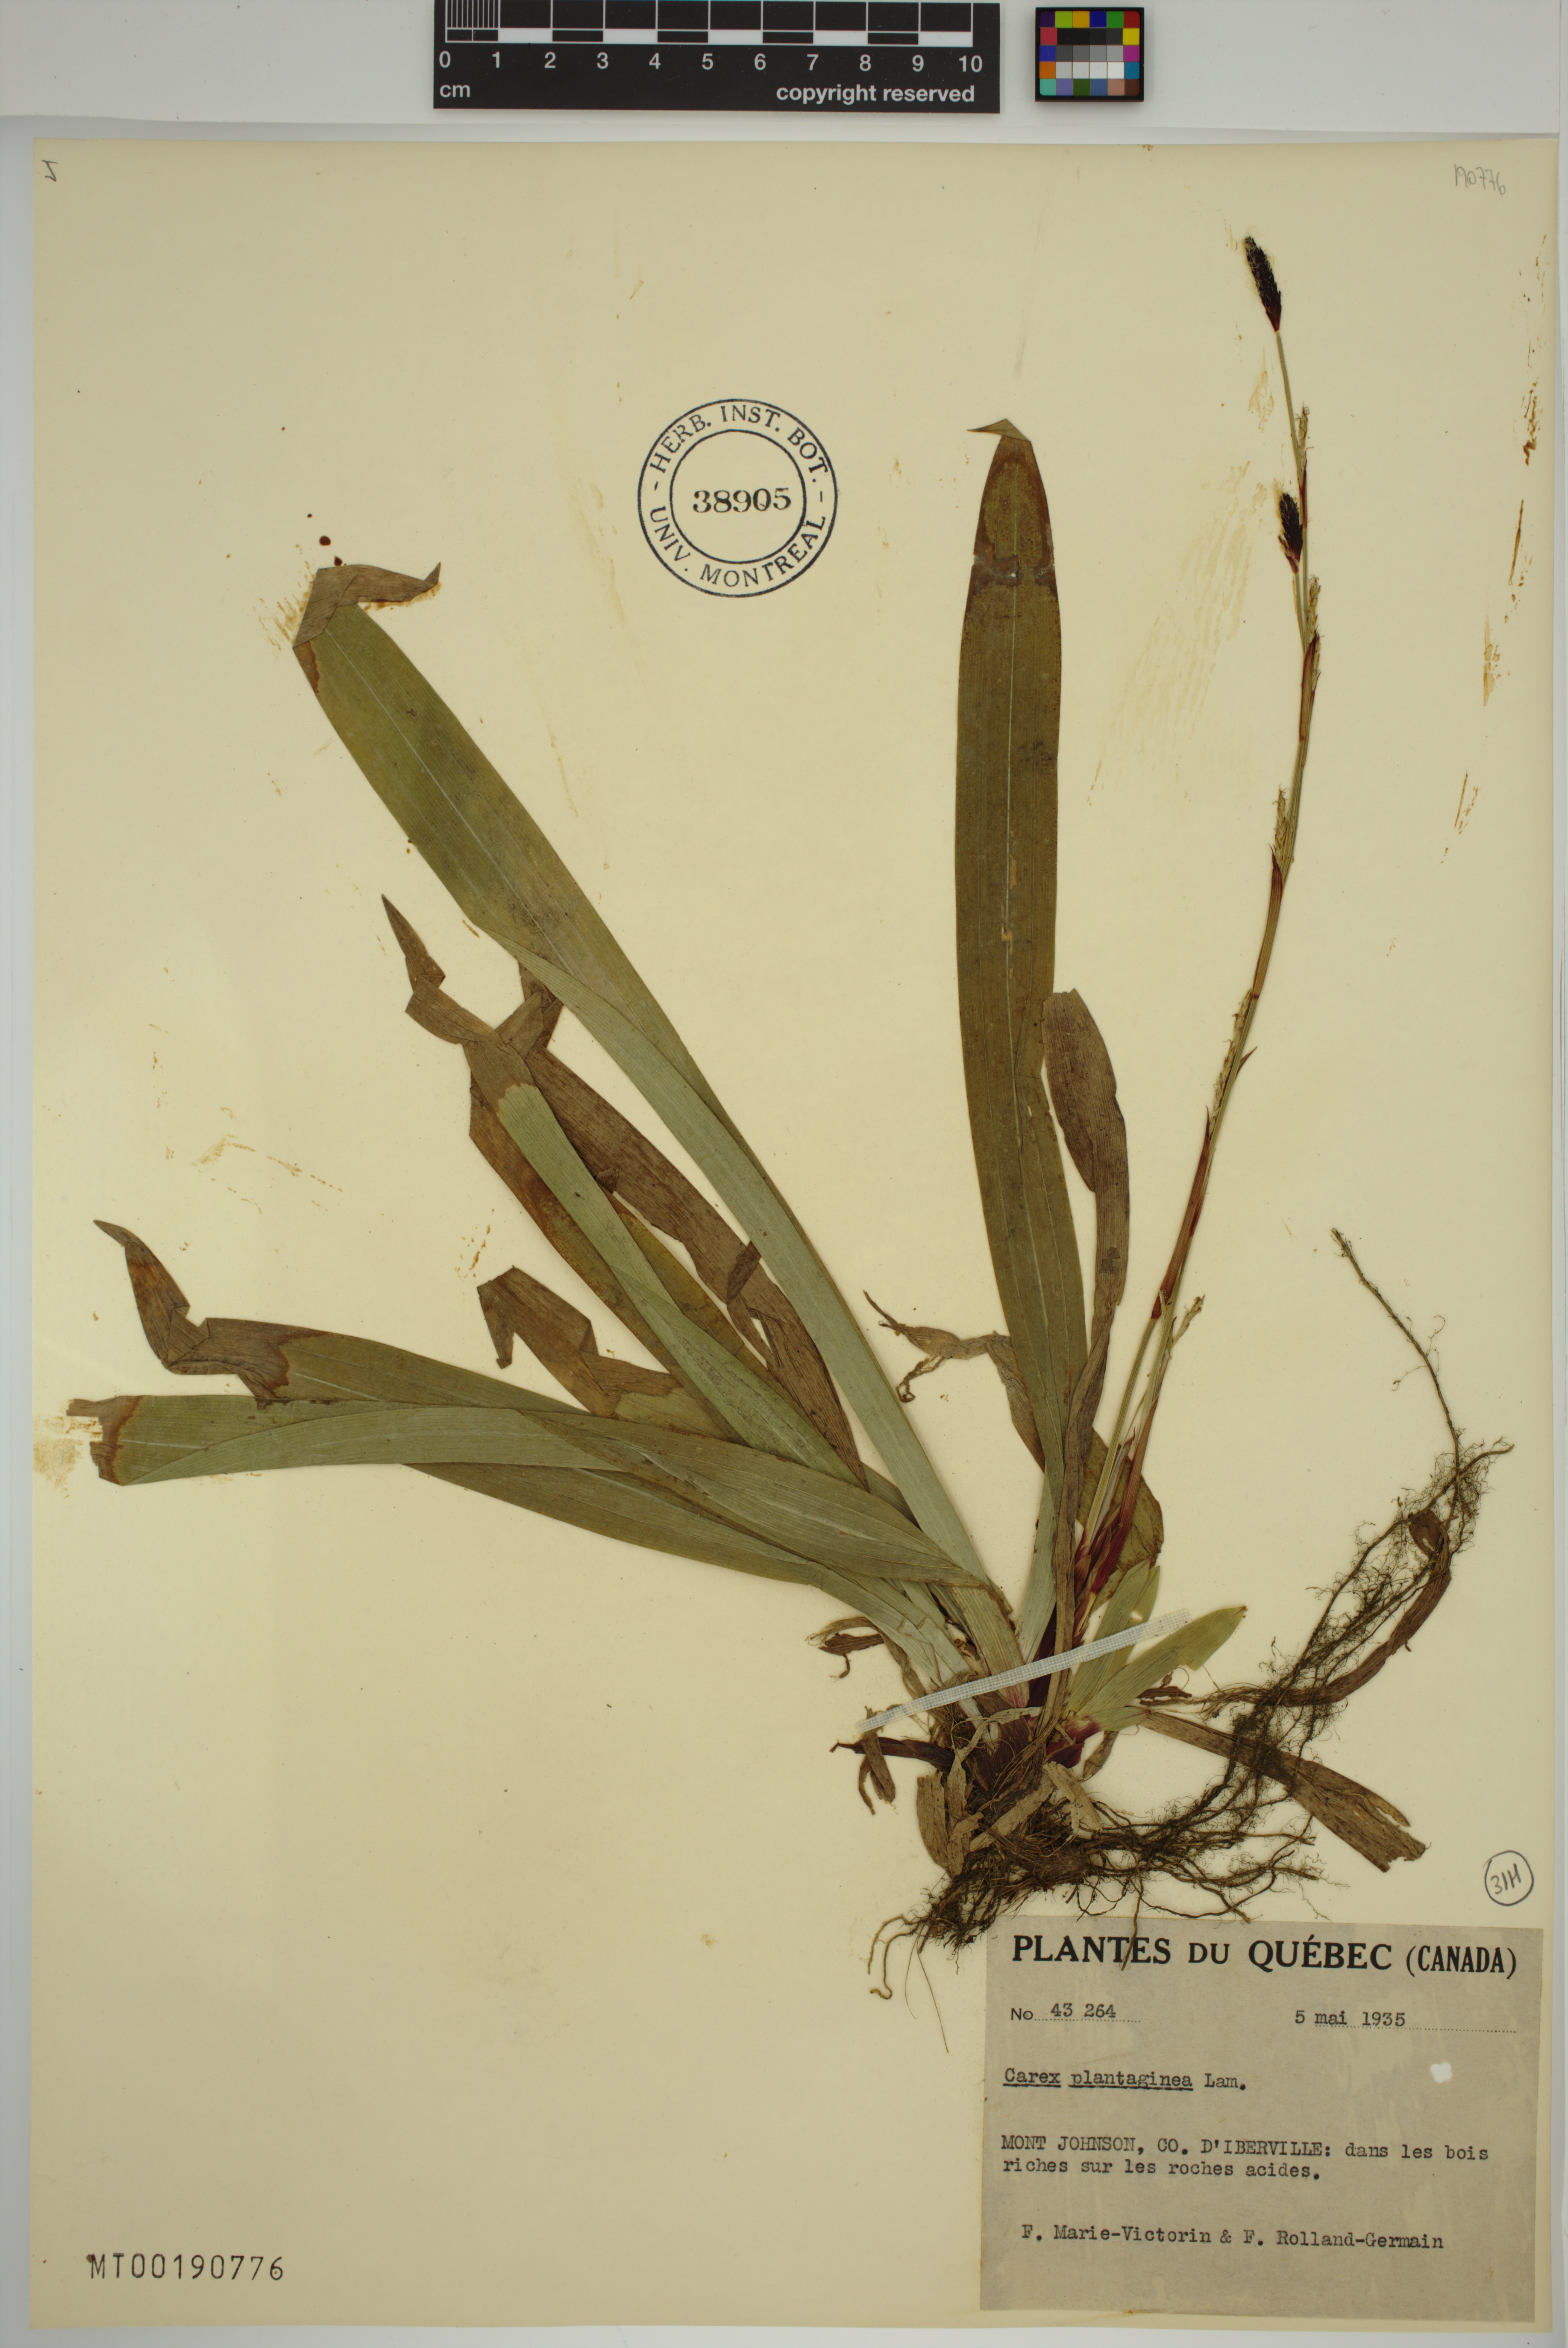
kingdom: Plantae
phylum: Tracheophyta
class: Liliopsida
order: Poales
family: Cyperaceae
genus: Carex
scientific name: Carex plantaginea
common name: Plantain-leaved sedge
